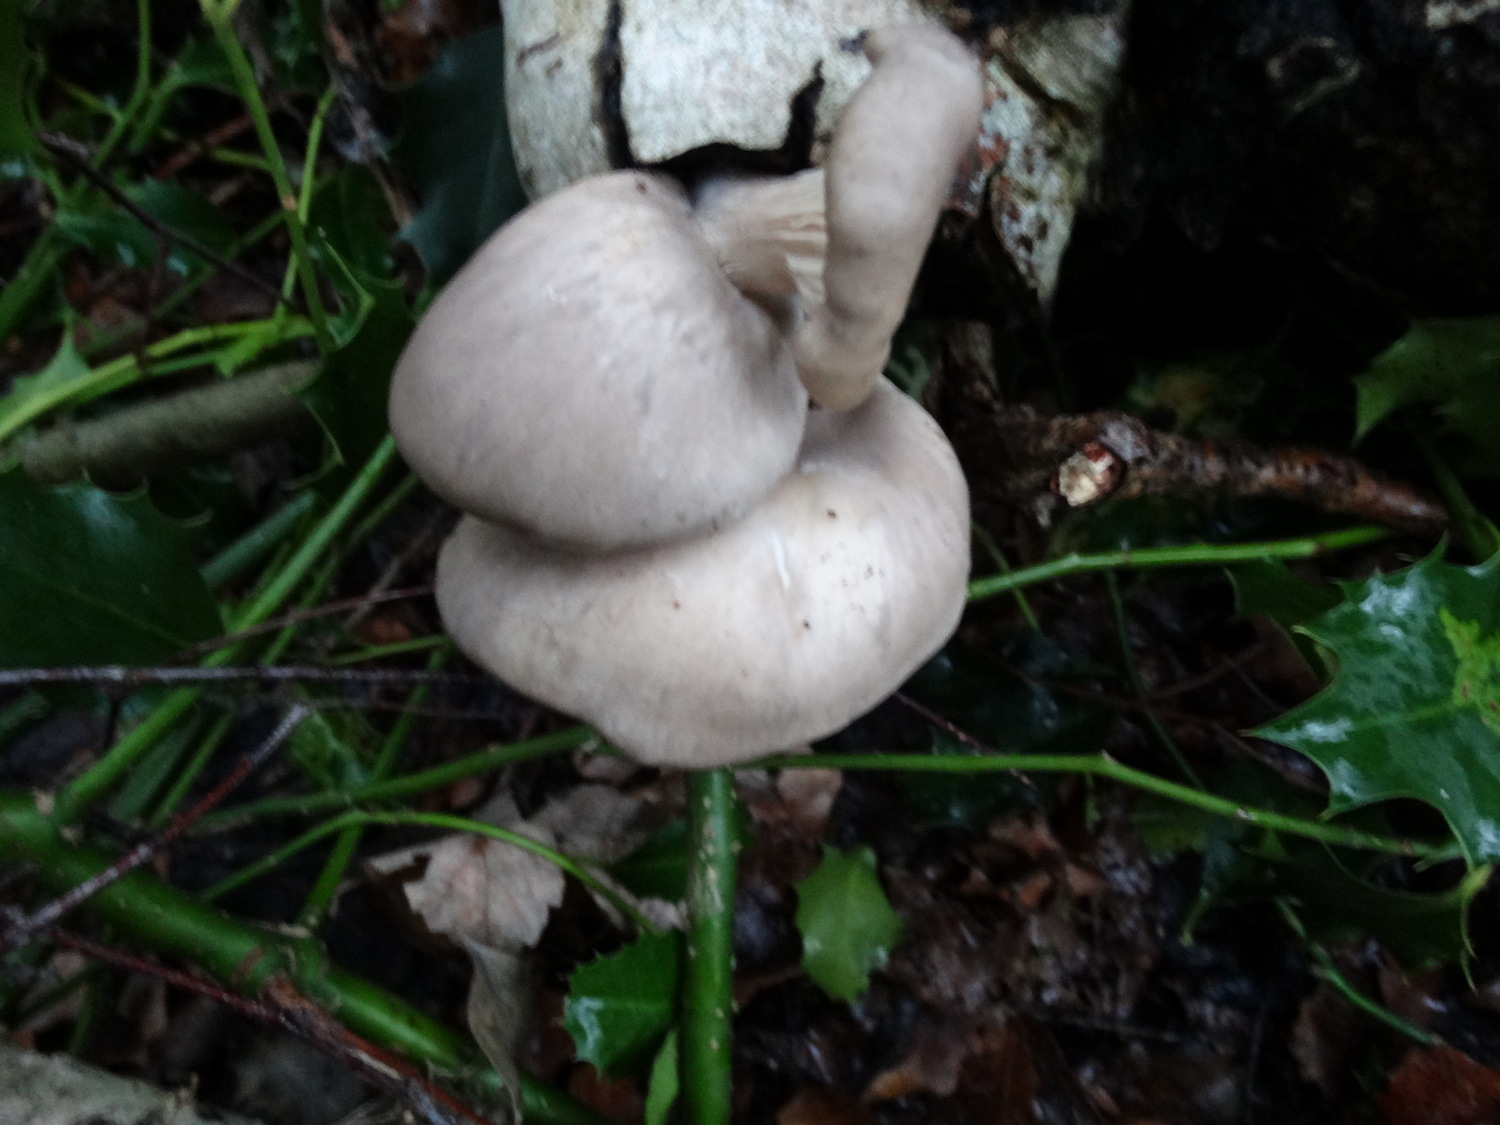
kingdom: Fungi
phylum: Basidiomycota
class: Agaricomycetes
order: Agaricales
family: Pleurotaceae
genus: Pleurotus
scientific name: Pleurotus ostreatus
